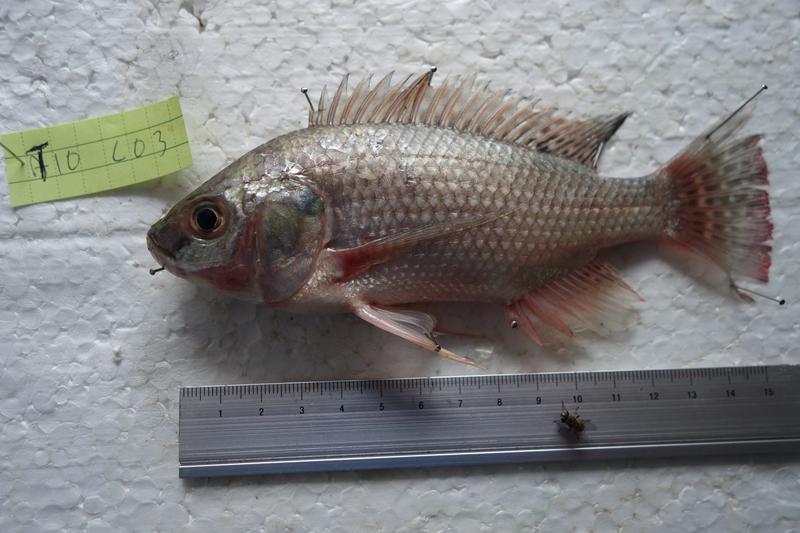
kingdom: Animalia
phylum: Chordata
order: Perciformes
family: Cichlidae
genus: Oreochromis
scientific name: Oreochromis esculentus
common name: Carp
